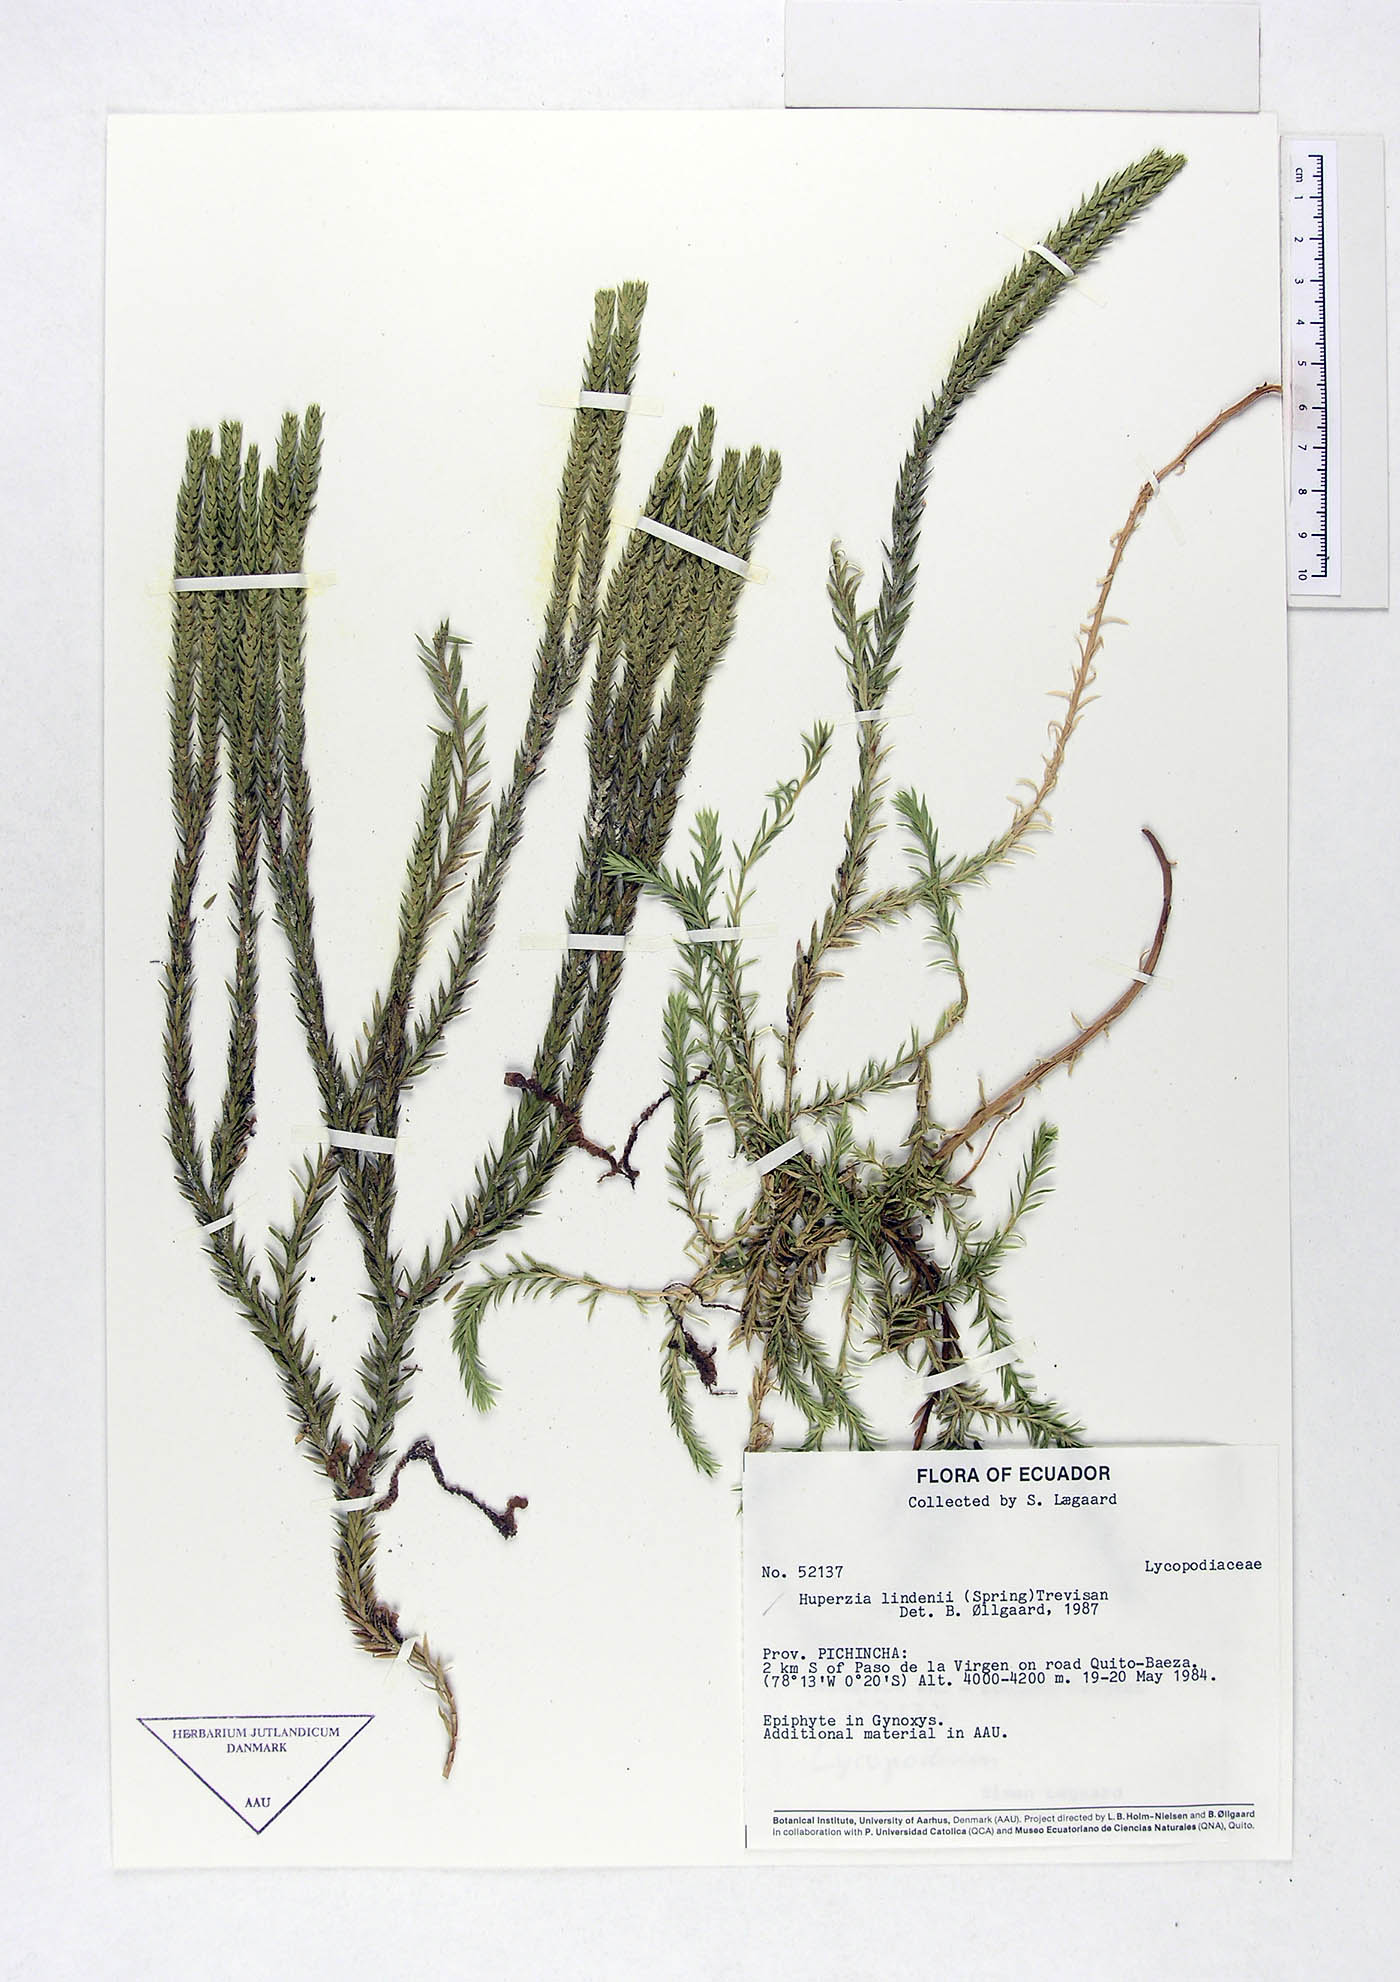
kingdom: Plantae
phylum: Tracheophyta
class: Lycopodiopsida
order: Lycopodiales
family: Lycopodiaceae
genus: Phlegmariurus
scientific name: Phlegmariurus lindenii
